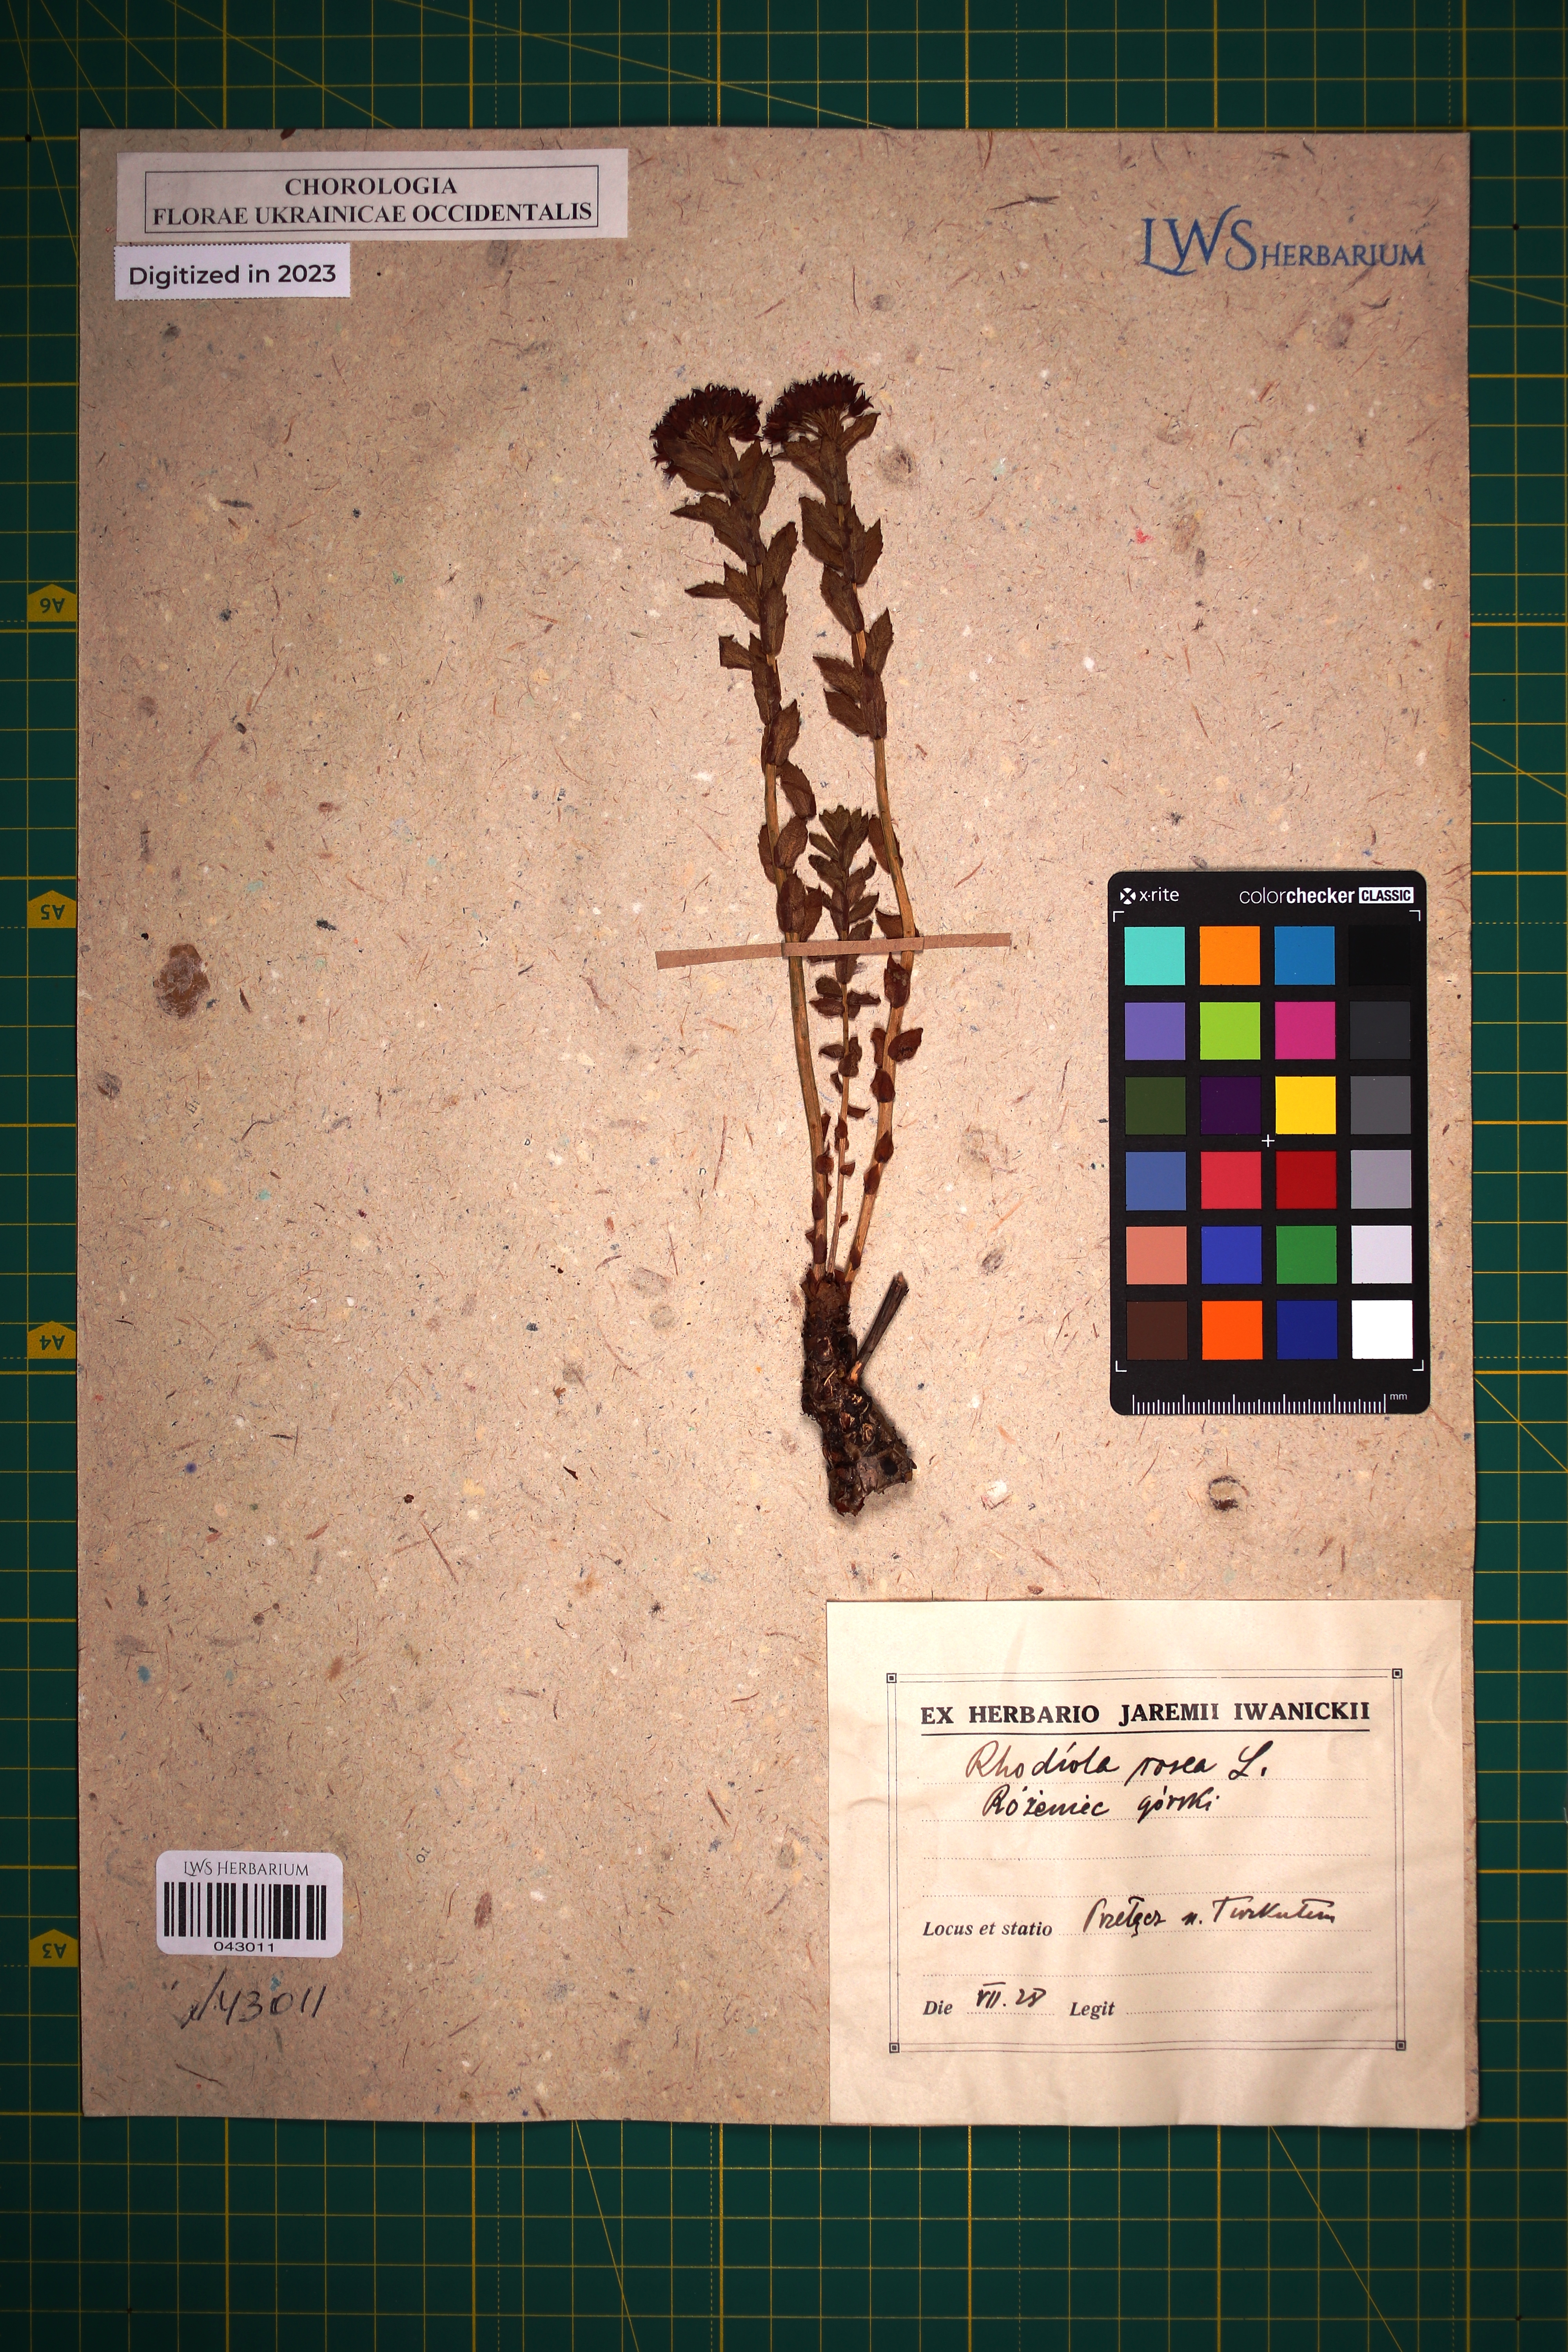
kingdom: Plantae
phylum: Tracheophyta
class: Magnoliopsida
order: Saxifragales
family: Crassulaceae
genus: Rhodiola
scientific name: Rhodiola rosea
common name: Roseroot
